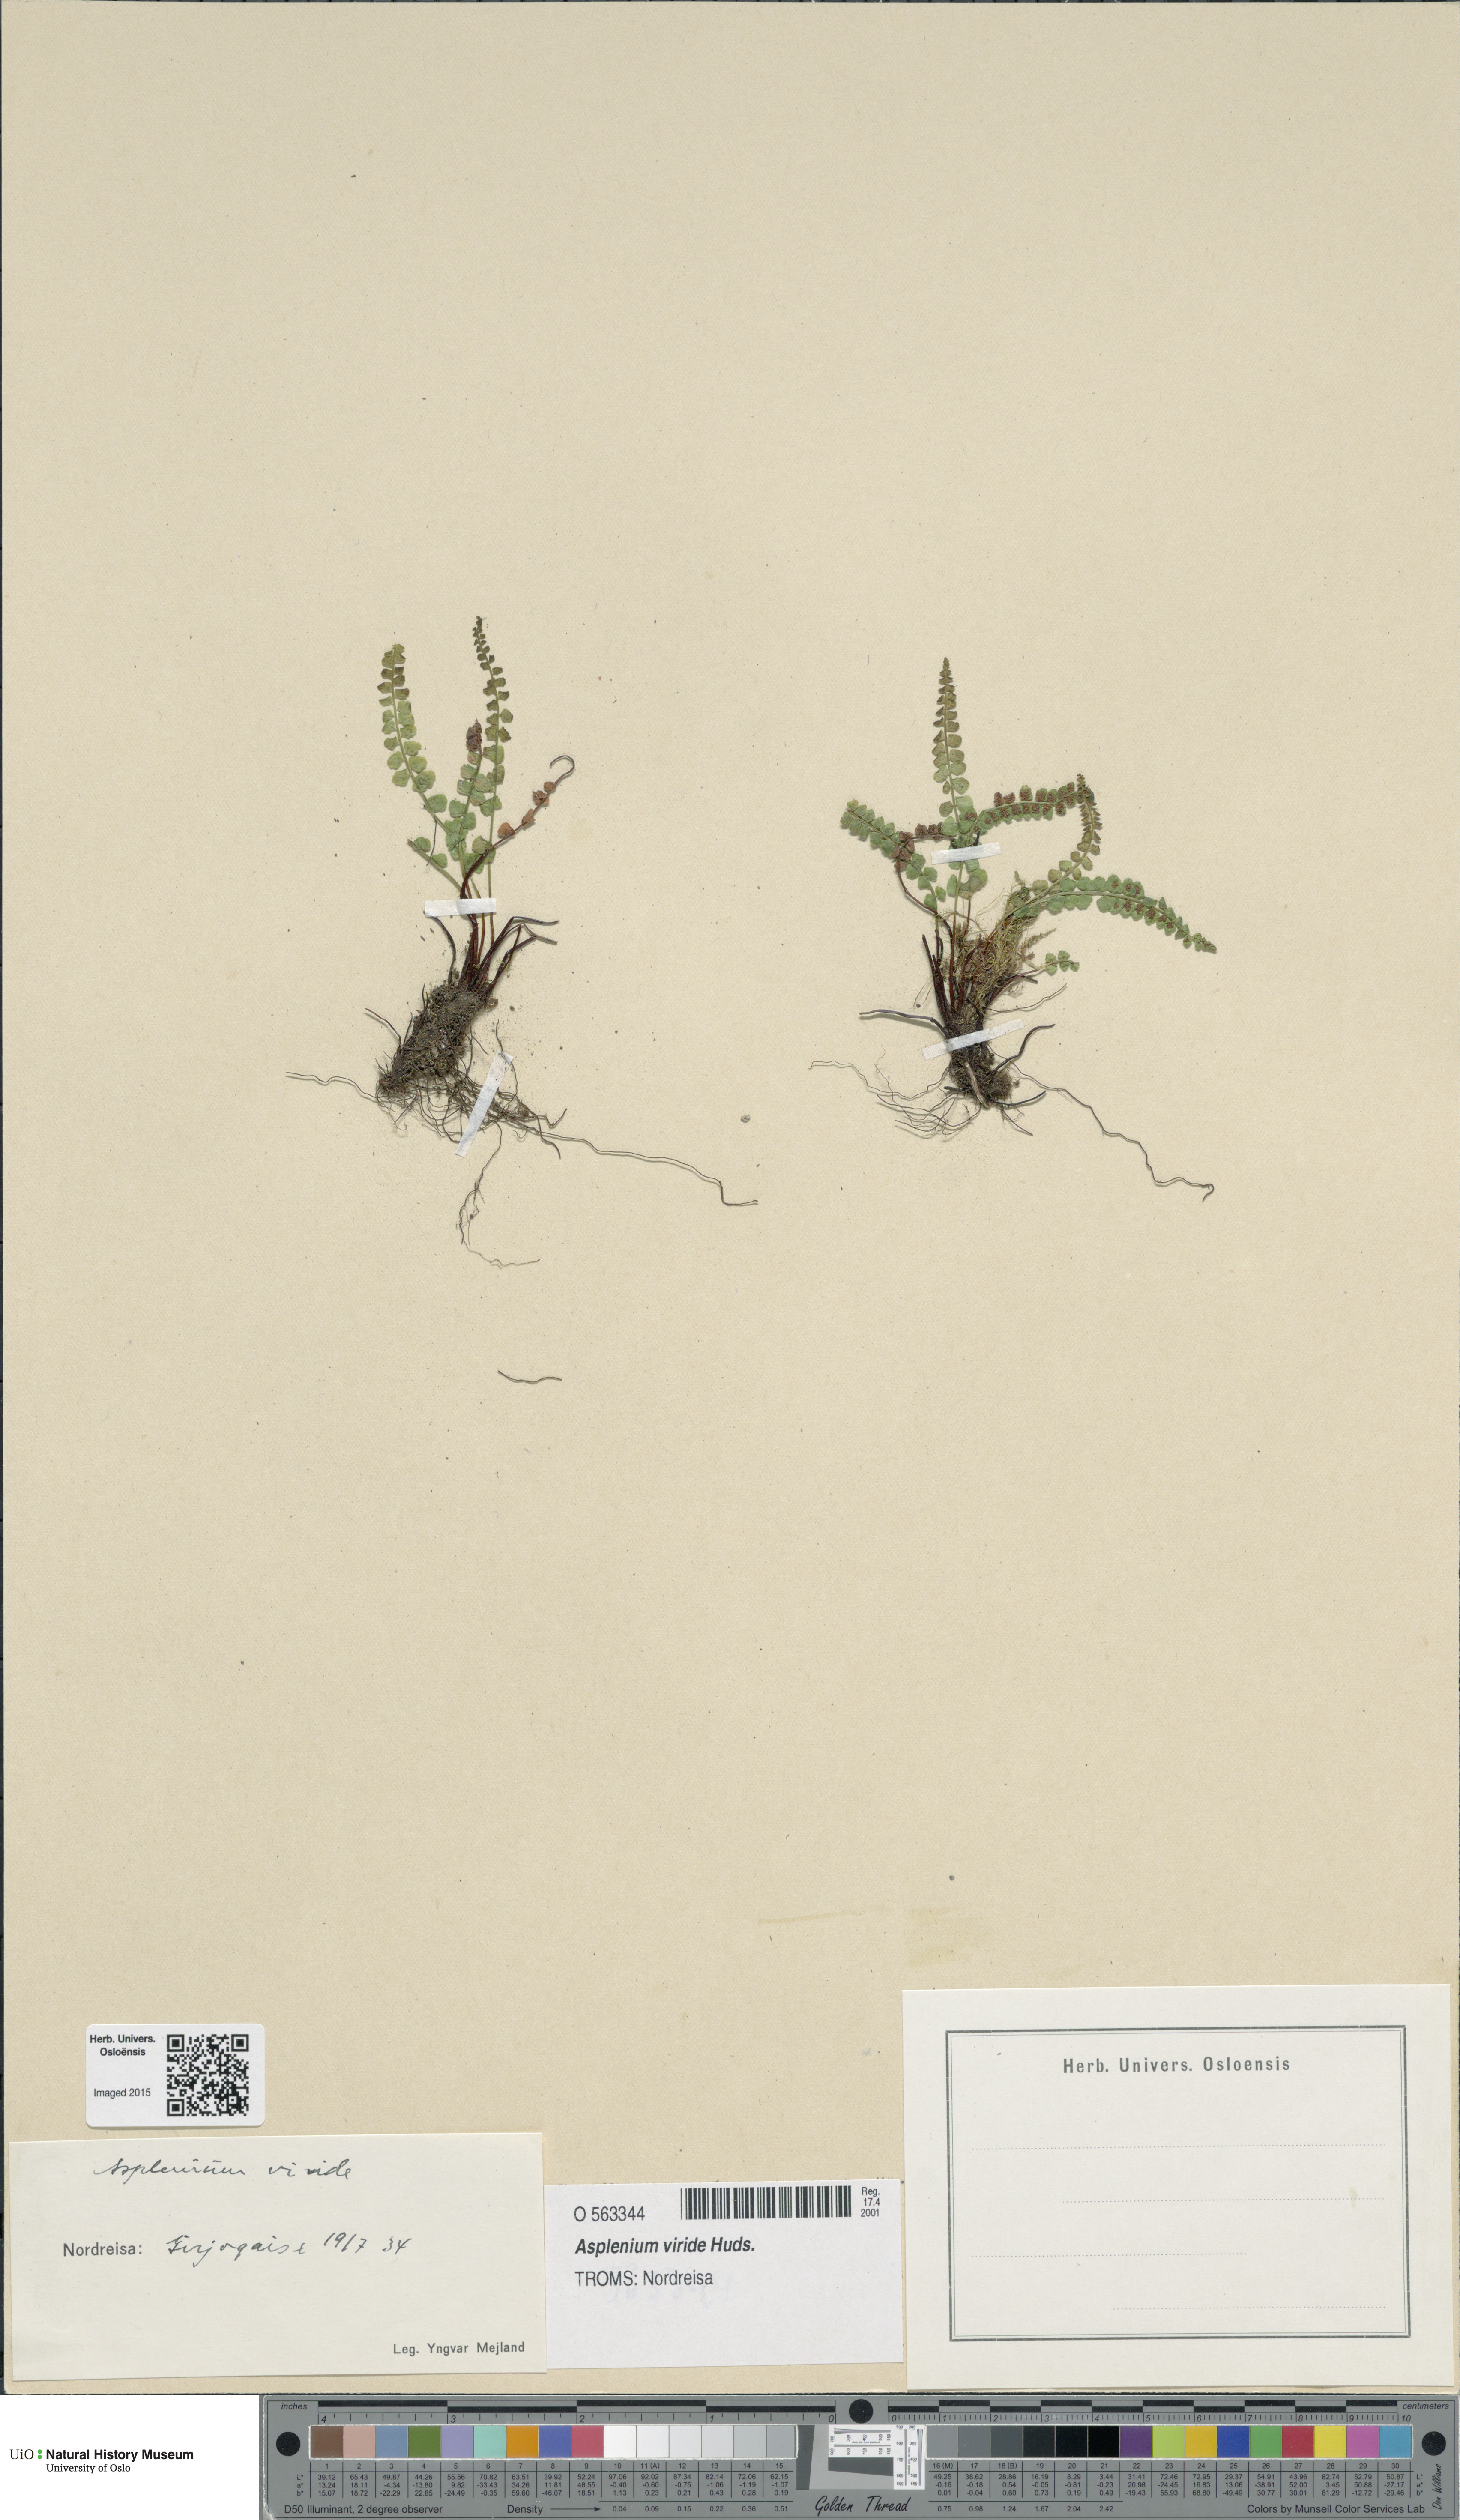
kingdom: Plantae
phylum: Tracheophyta
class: Polypodiopsida
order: Polypodiales
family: Aspleniaceae
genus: Asplenium
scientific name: Asplenium viride
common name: Green spleenwort
